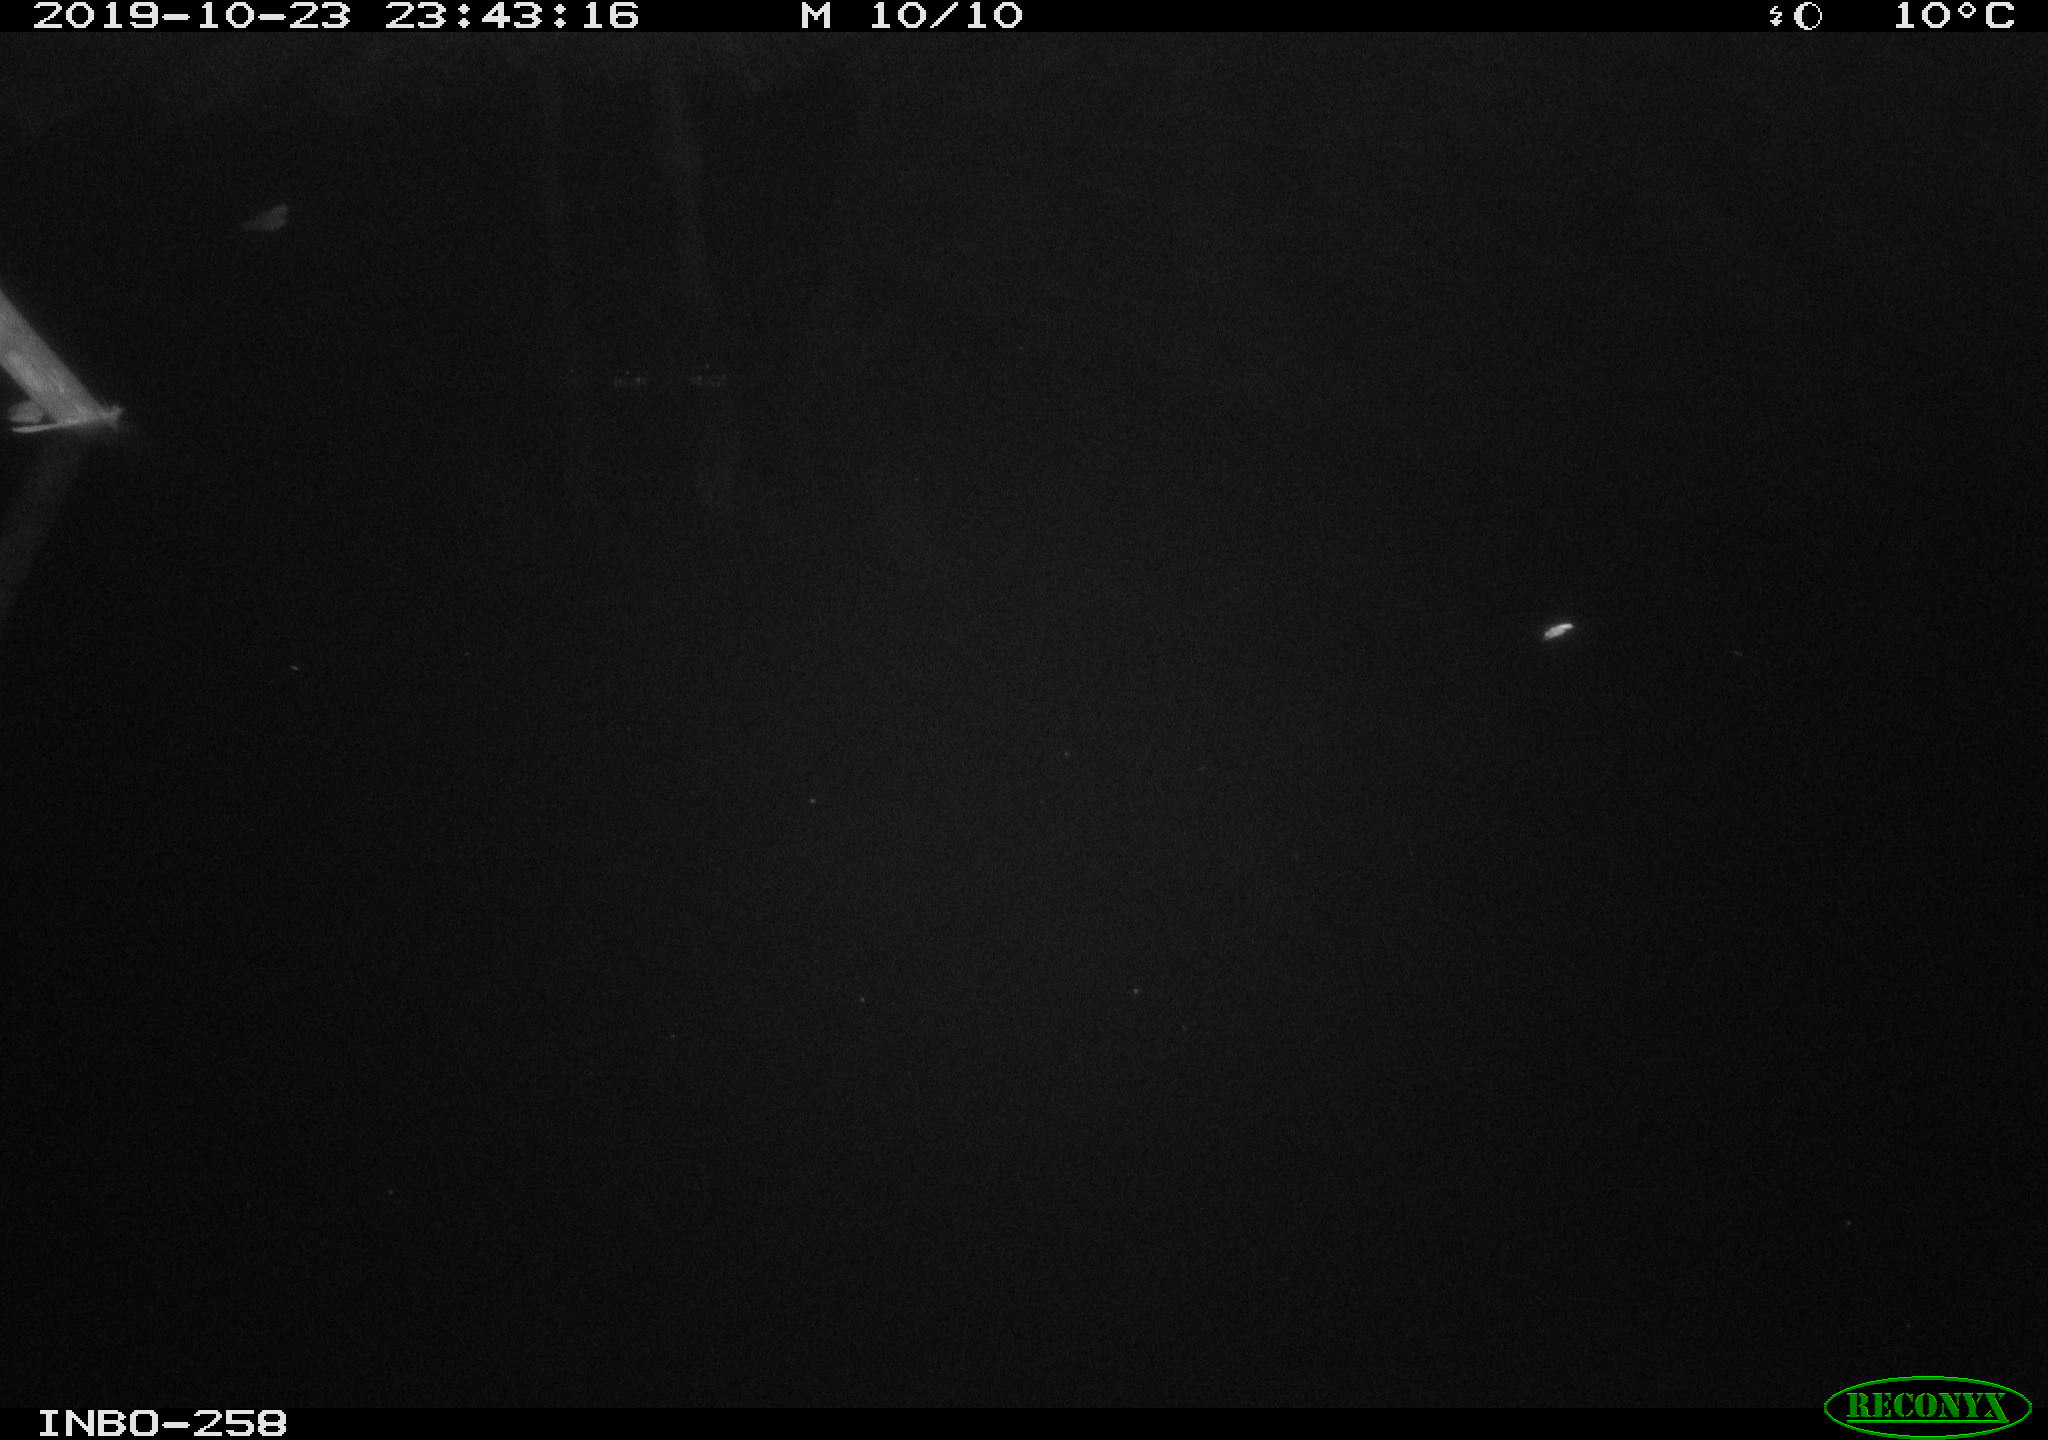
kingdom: Animalia
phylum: Chordata
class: Aves
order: Anseriformes
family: Anatidae
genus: Anas
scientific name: Anas platyrhynchos
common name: Mallard
